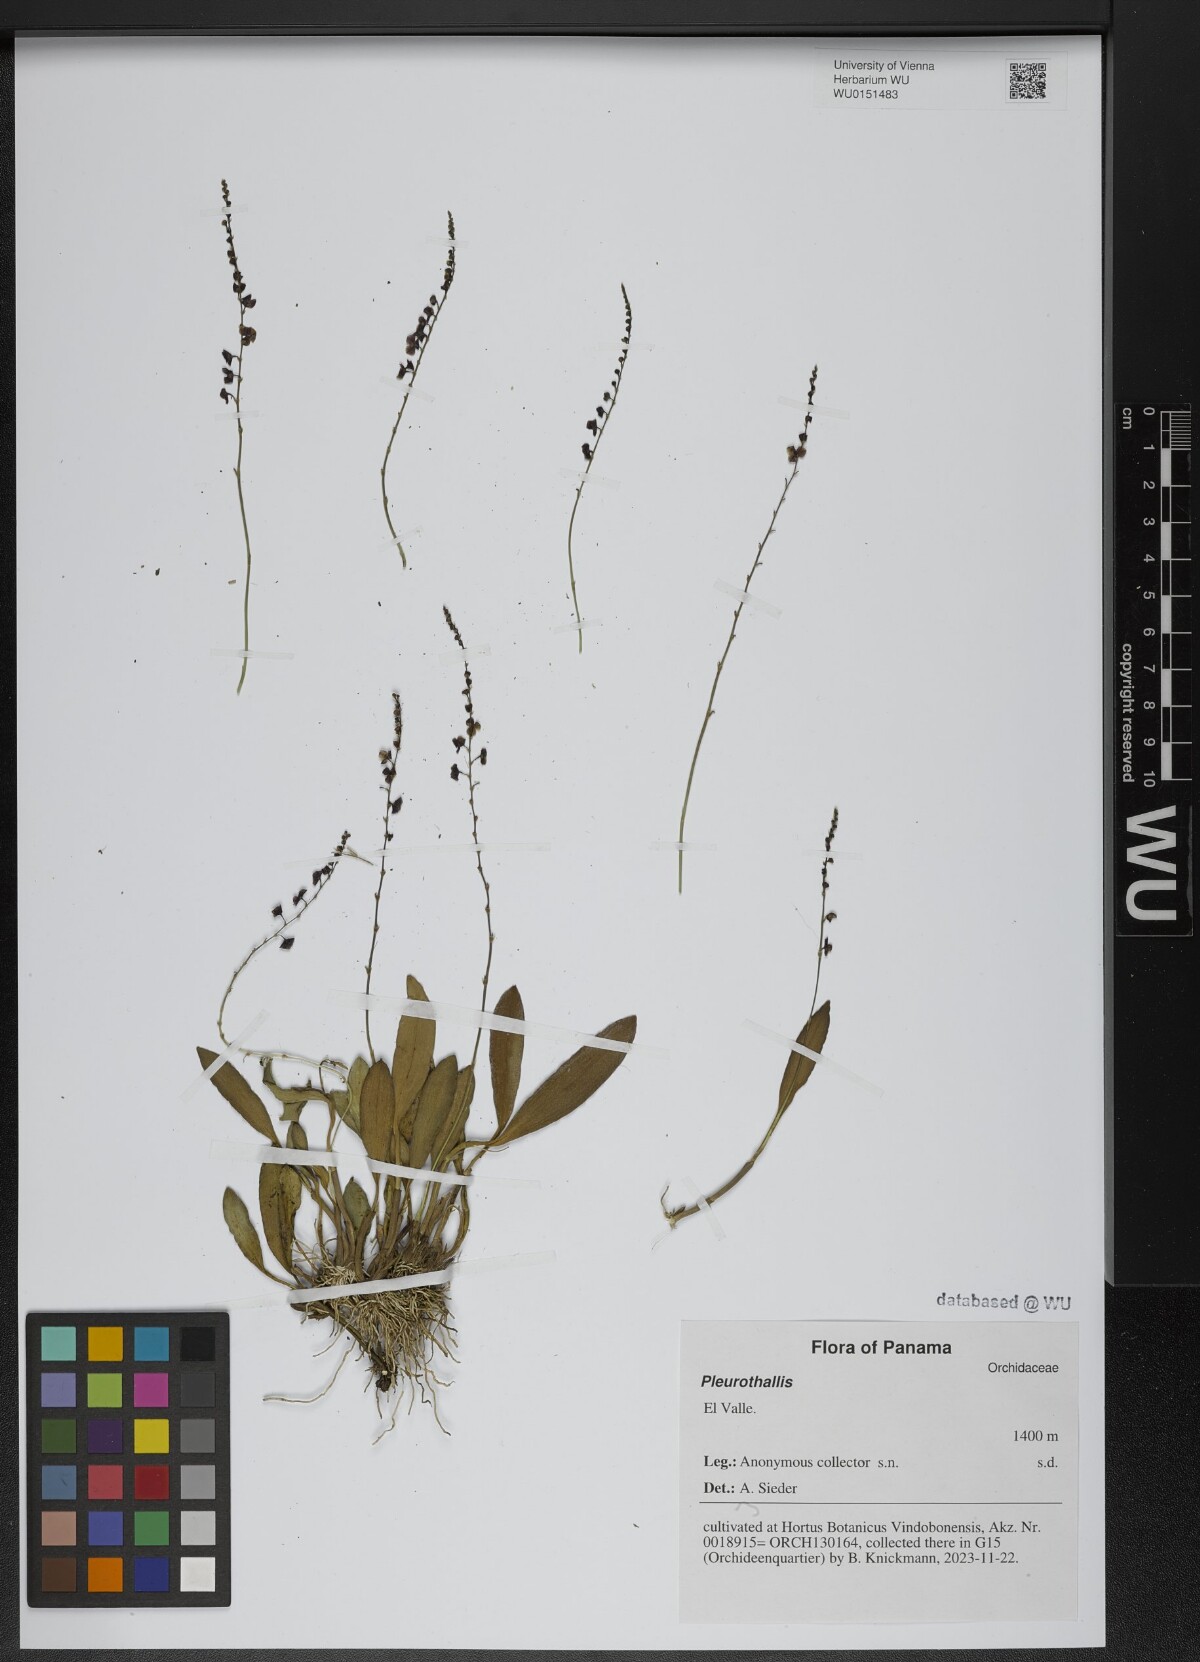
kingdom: Plantae
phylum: Tracheophyta
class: Liliopsida
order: Asparagales
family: Orchidaceae
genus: Pleurothallis
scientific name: Pleurothallis
